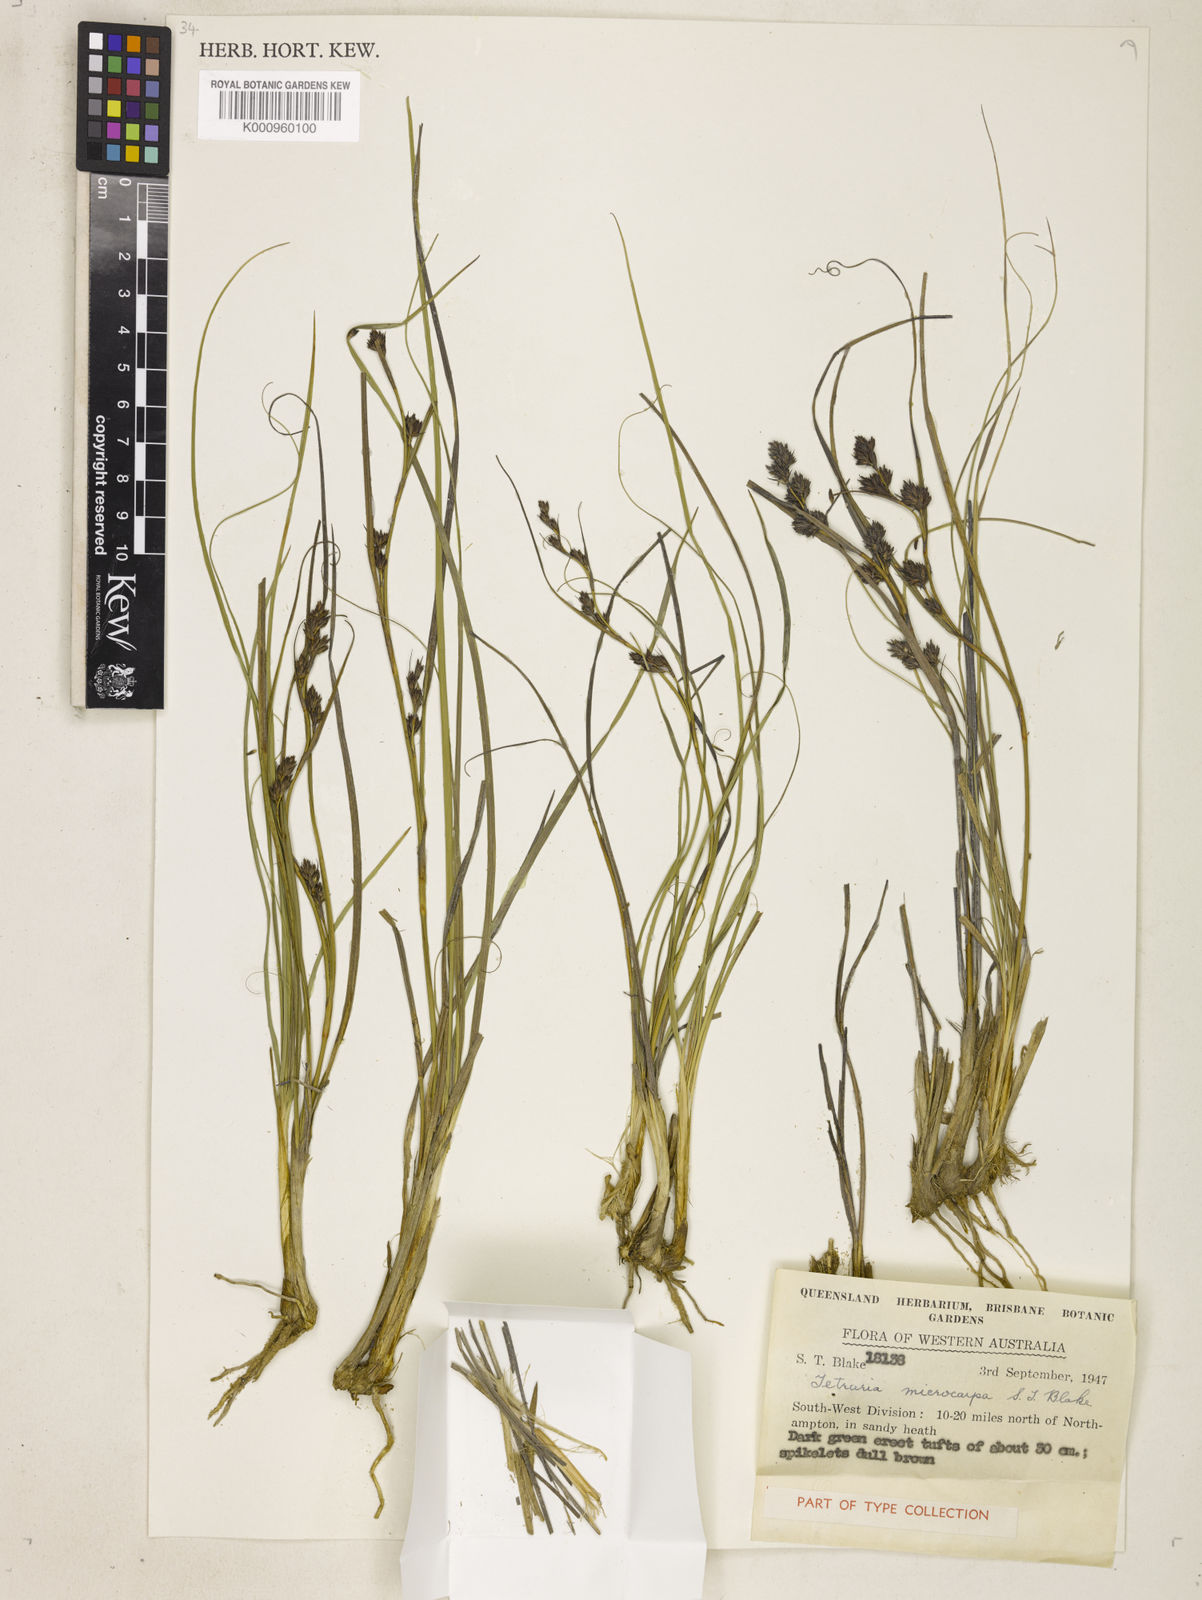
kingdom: Plantae
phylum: Tracheophyta
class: Liliopsida
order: Poales
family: Cyperaceae
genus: Tetraria
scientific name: Tetraria microcarpa
